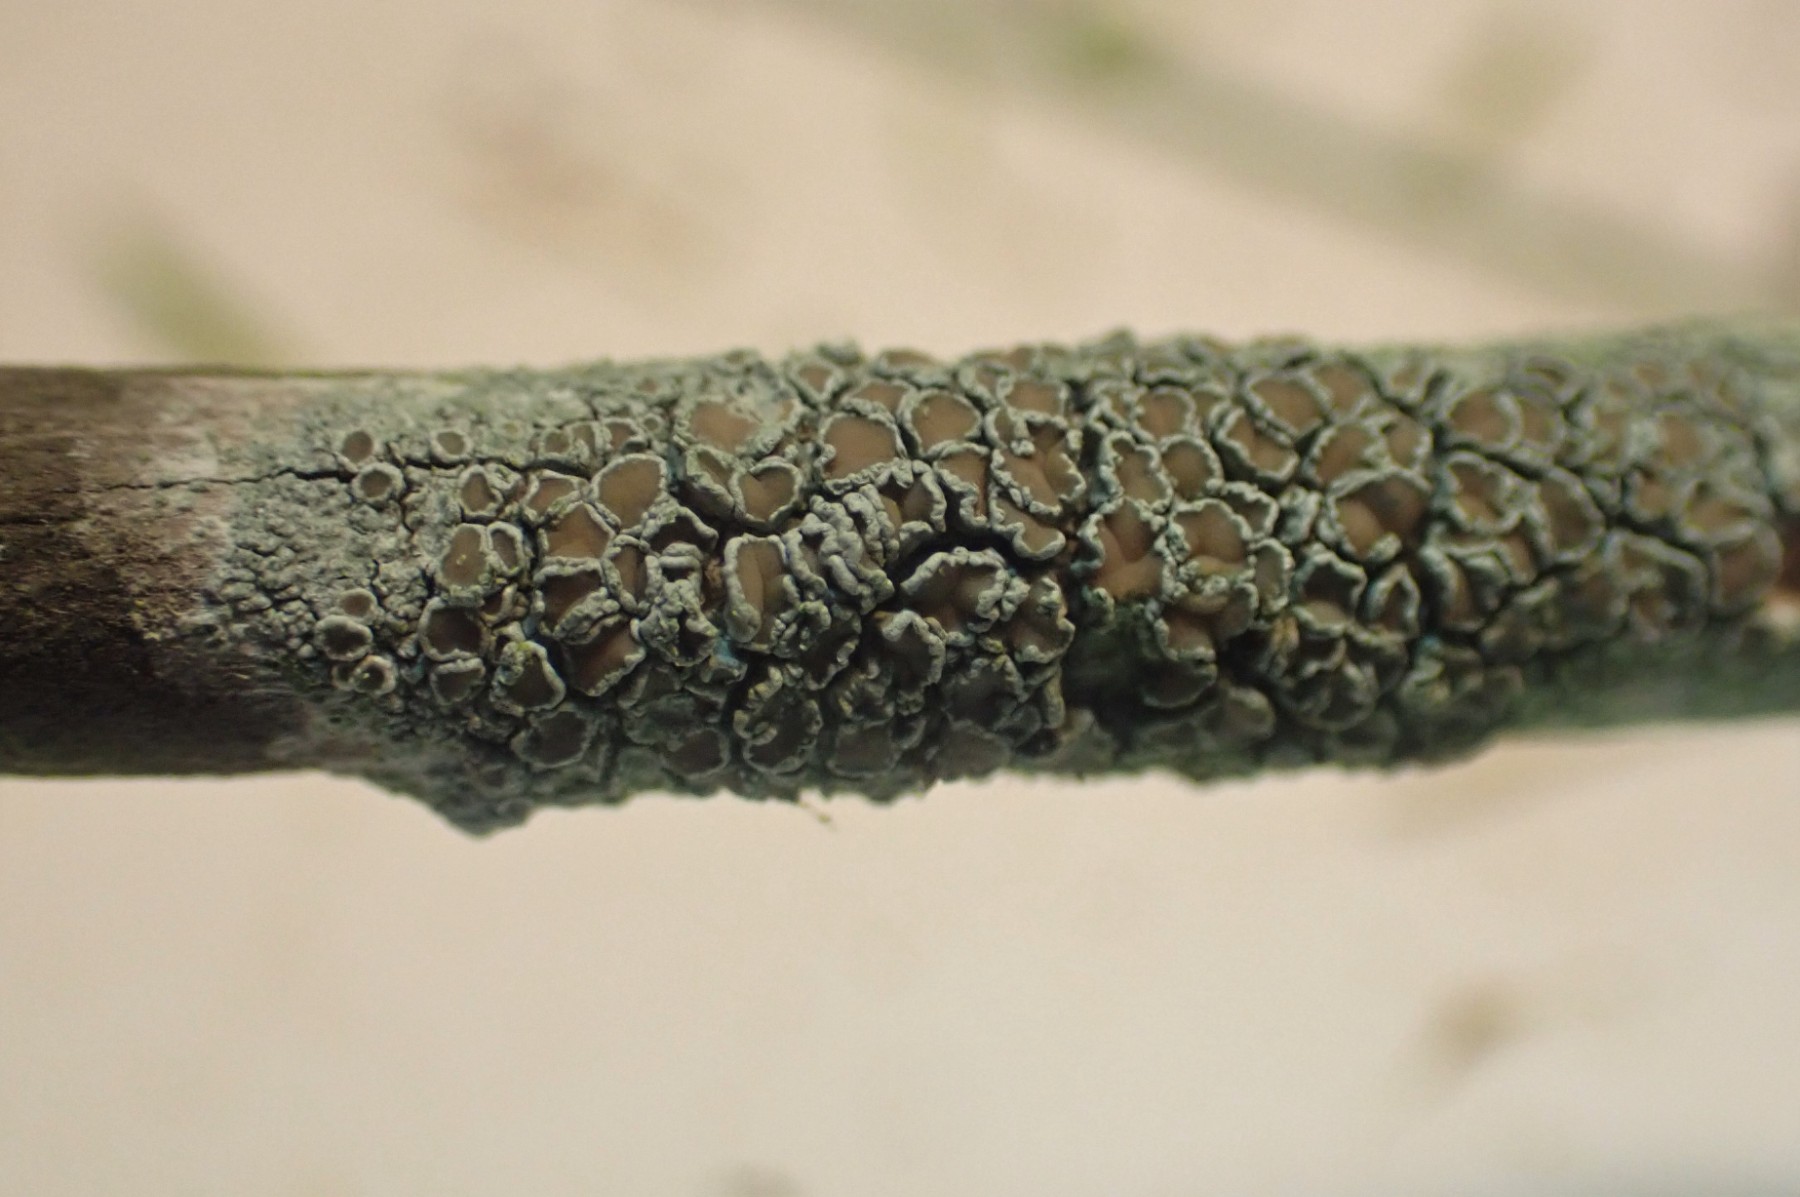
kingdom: Fungi
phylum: Ascomycota
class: Lecanoromycetes
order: Lecanorales
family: Lecanoraceae
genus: Lecanora
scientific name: Lecanora chlarotera
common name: brun kantskivelav
